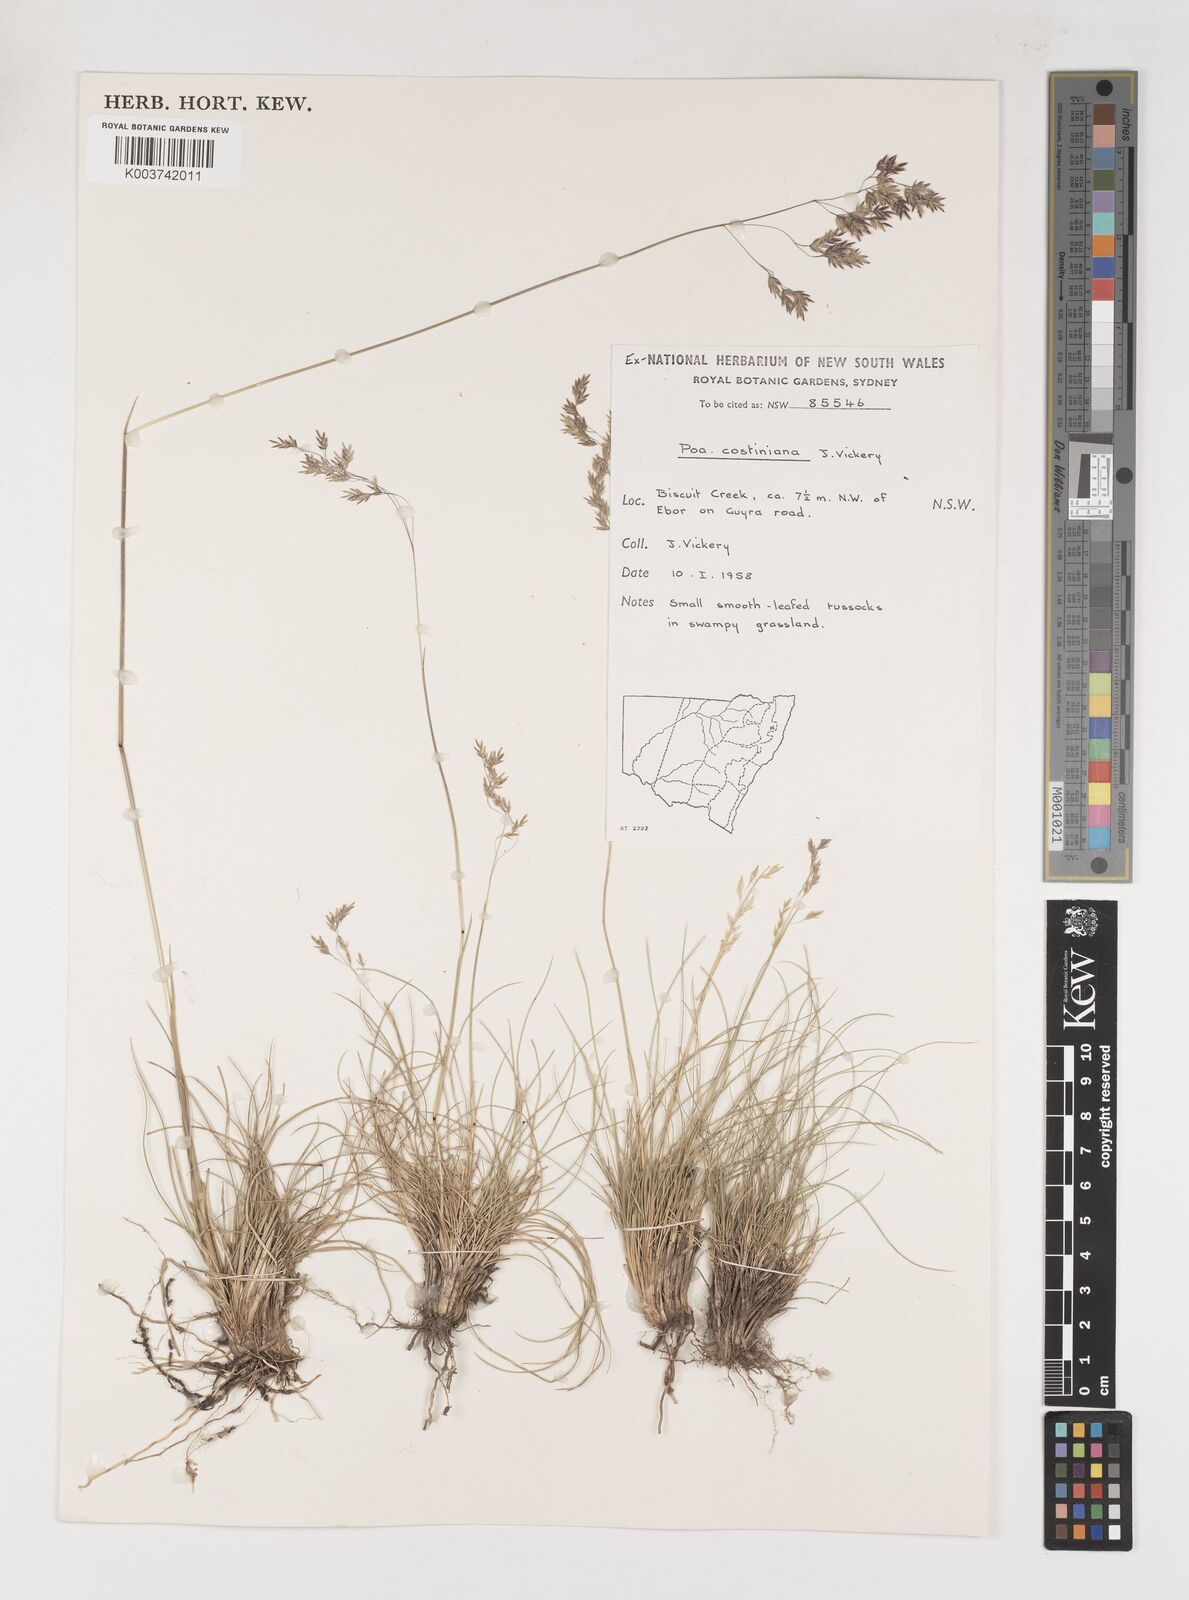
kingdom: Plantae
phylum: Tracheophyta
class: Liliopsida
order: Poales
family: Poaceae
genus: Poa
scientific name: Poa costiniana
